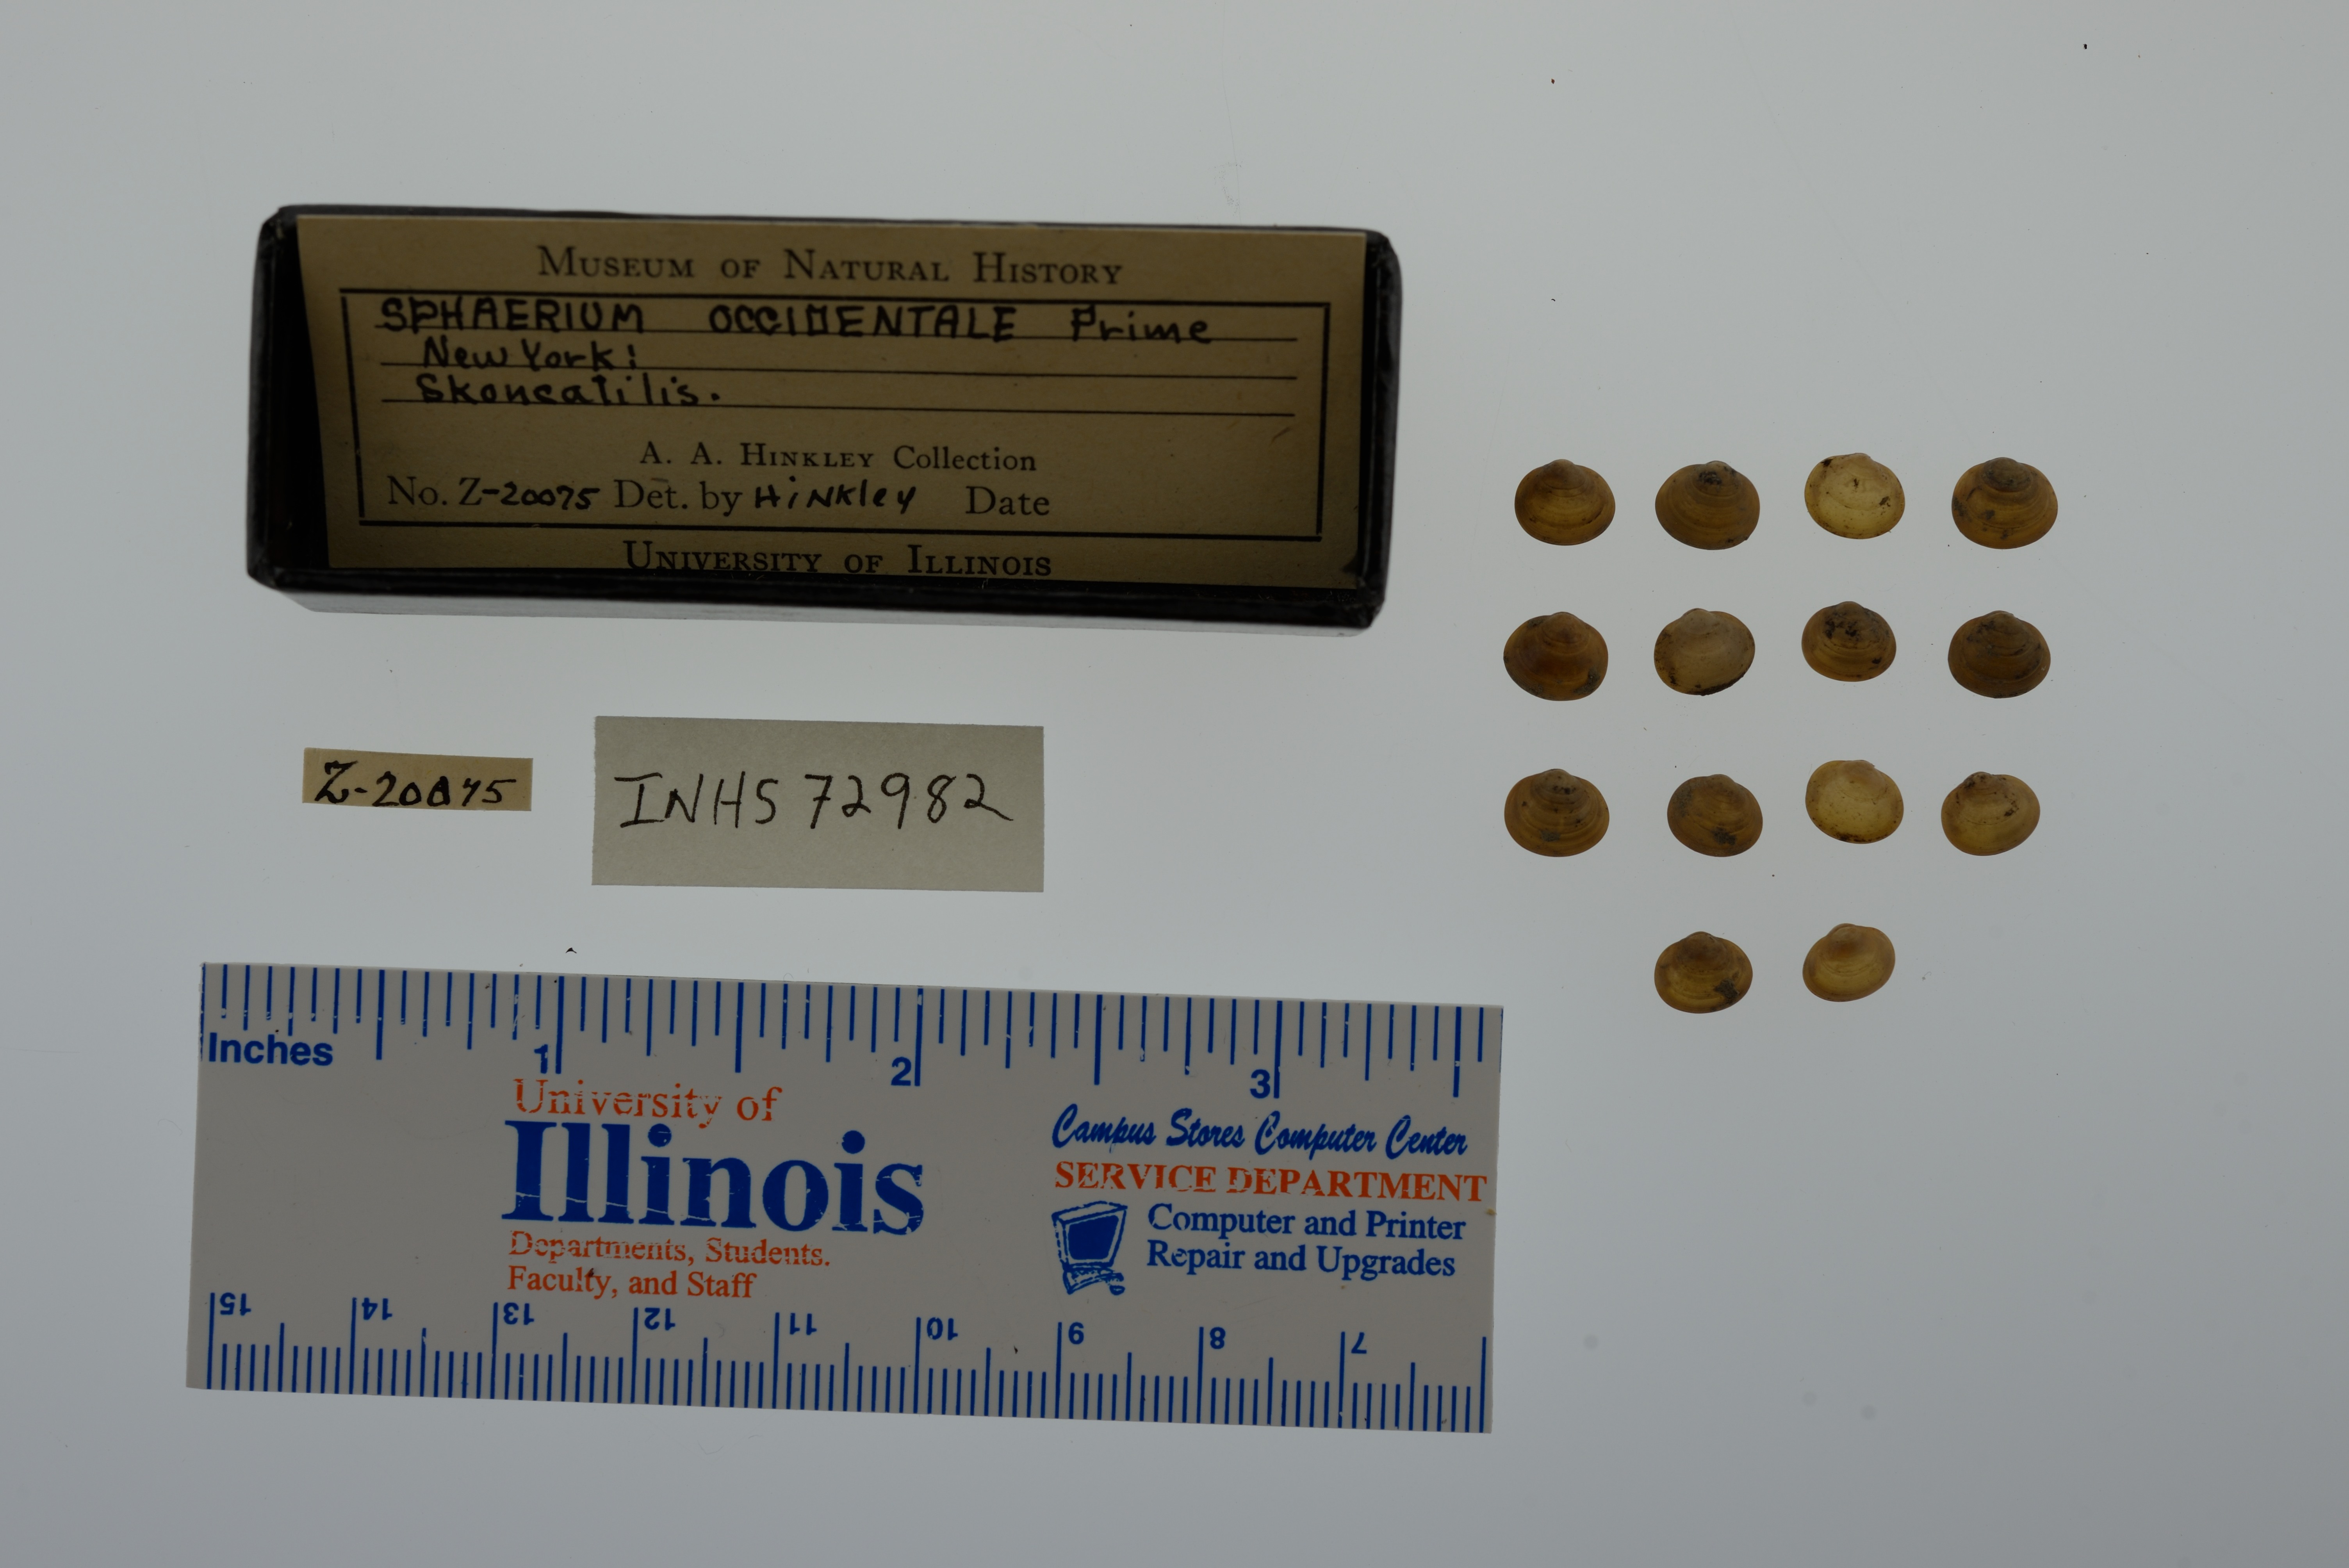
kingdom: Animalia
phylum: Mollusca
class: Bivalvia
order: Sphaeriida
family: Sphaeriidae
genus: Sphaerium
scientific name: Sphaerium occidentale
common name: Herrington fingernailclam
